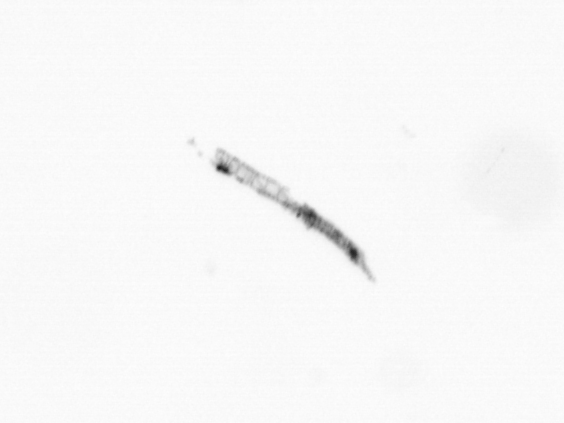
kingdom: Chromista
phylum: Ochrophyta
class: Bacillariophyceae
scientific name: Bacillariophyceae
